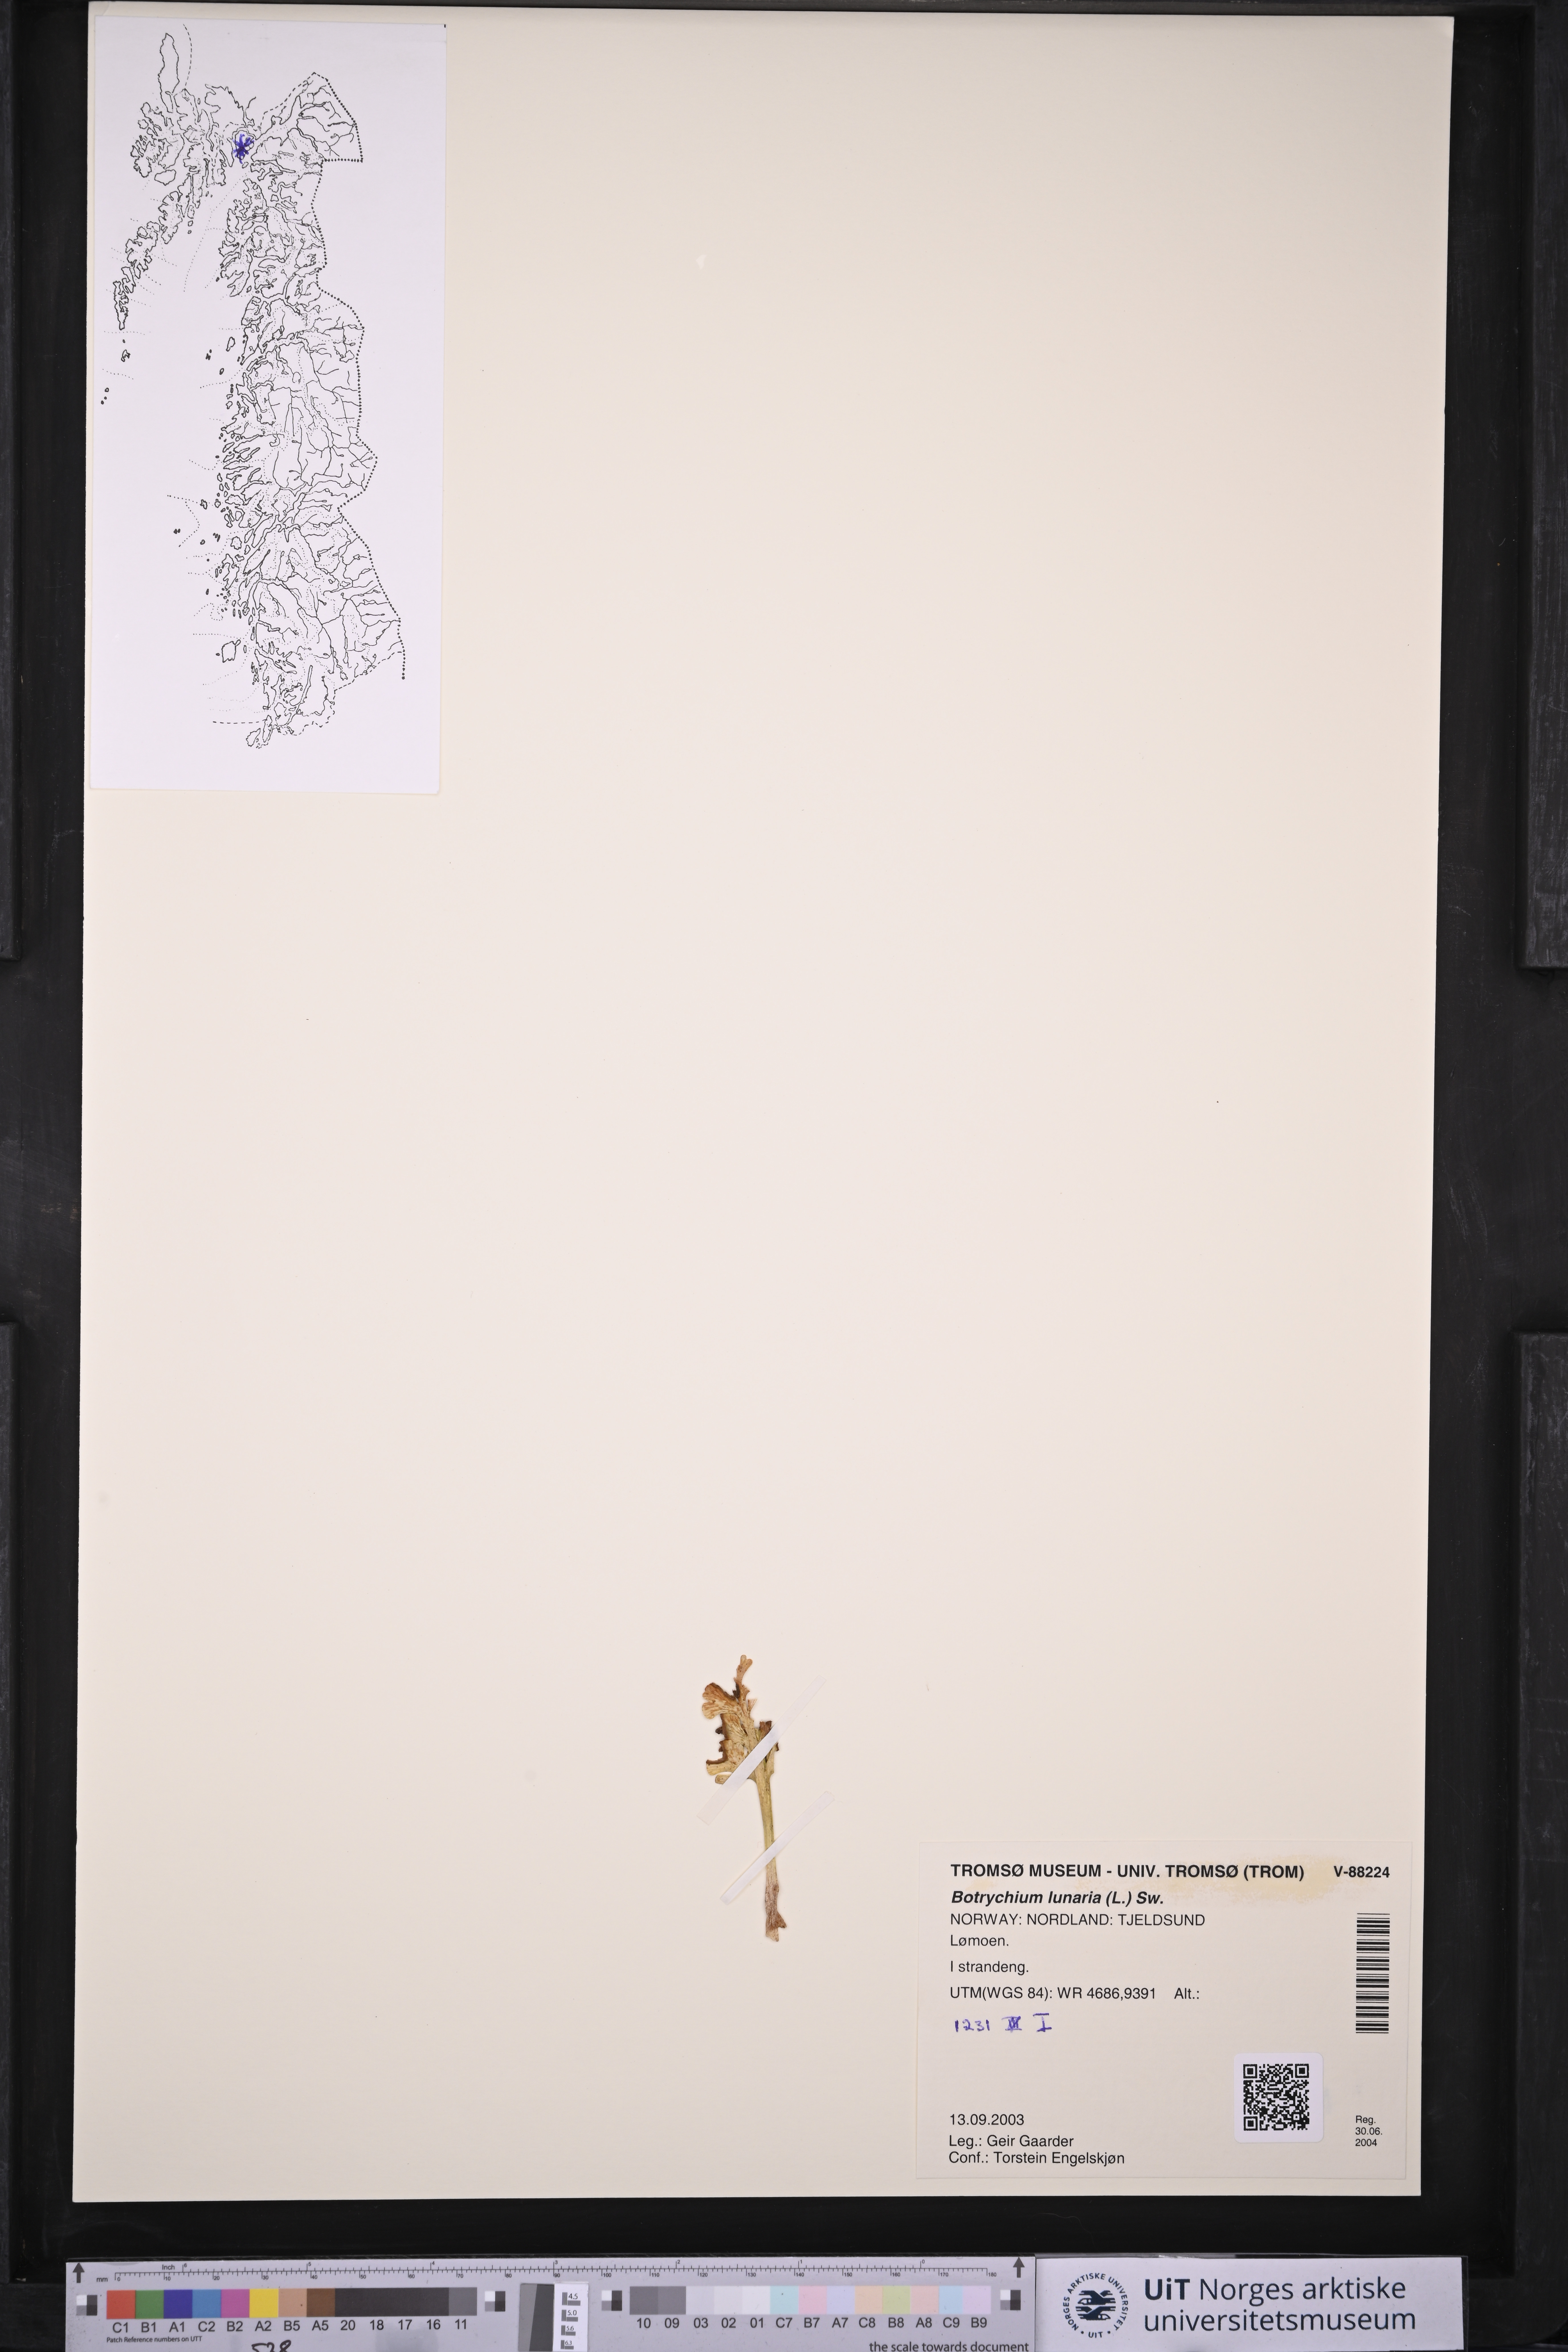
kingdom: Plantae
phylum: Tracheophyta
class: Polypodiopsida
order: Ophioglossales
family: Ophioglossaceae
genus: Botrychium
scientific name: Botrychium lunaria
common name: Moonwort
